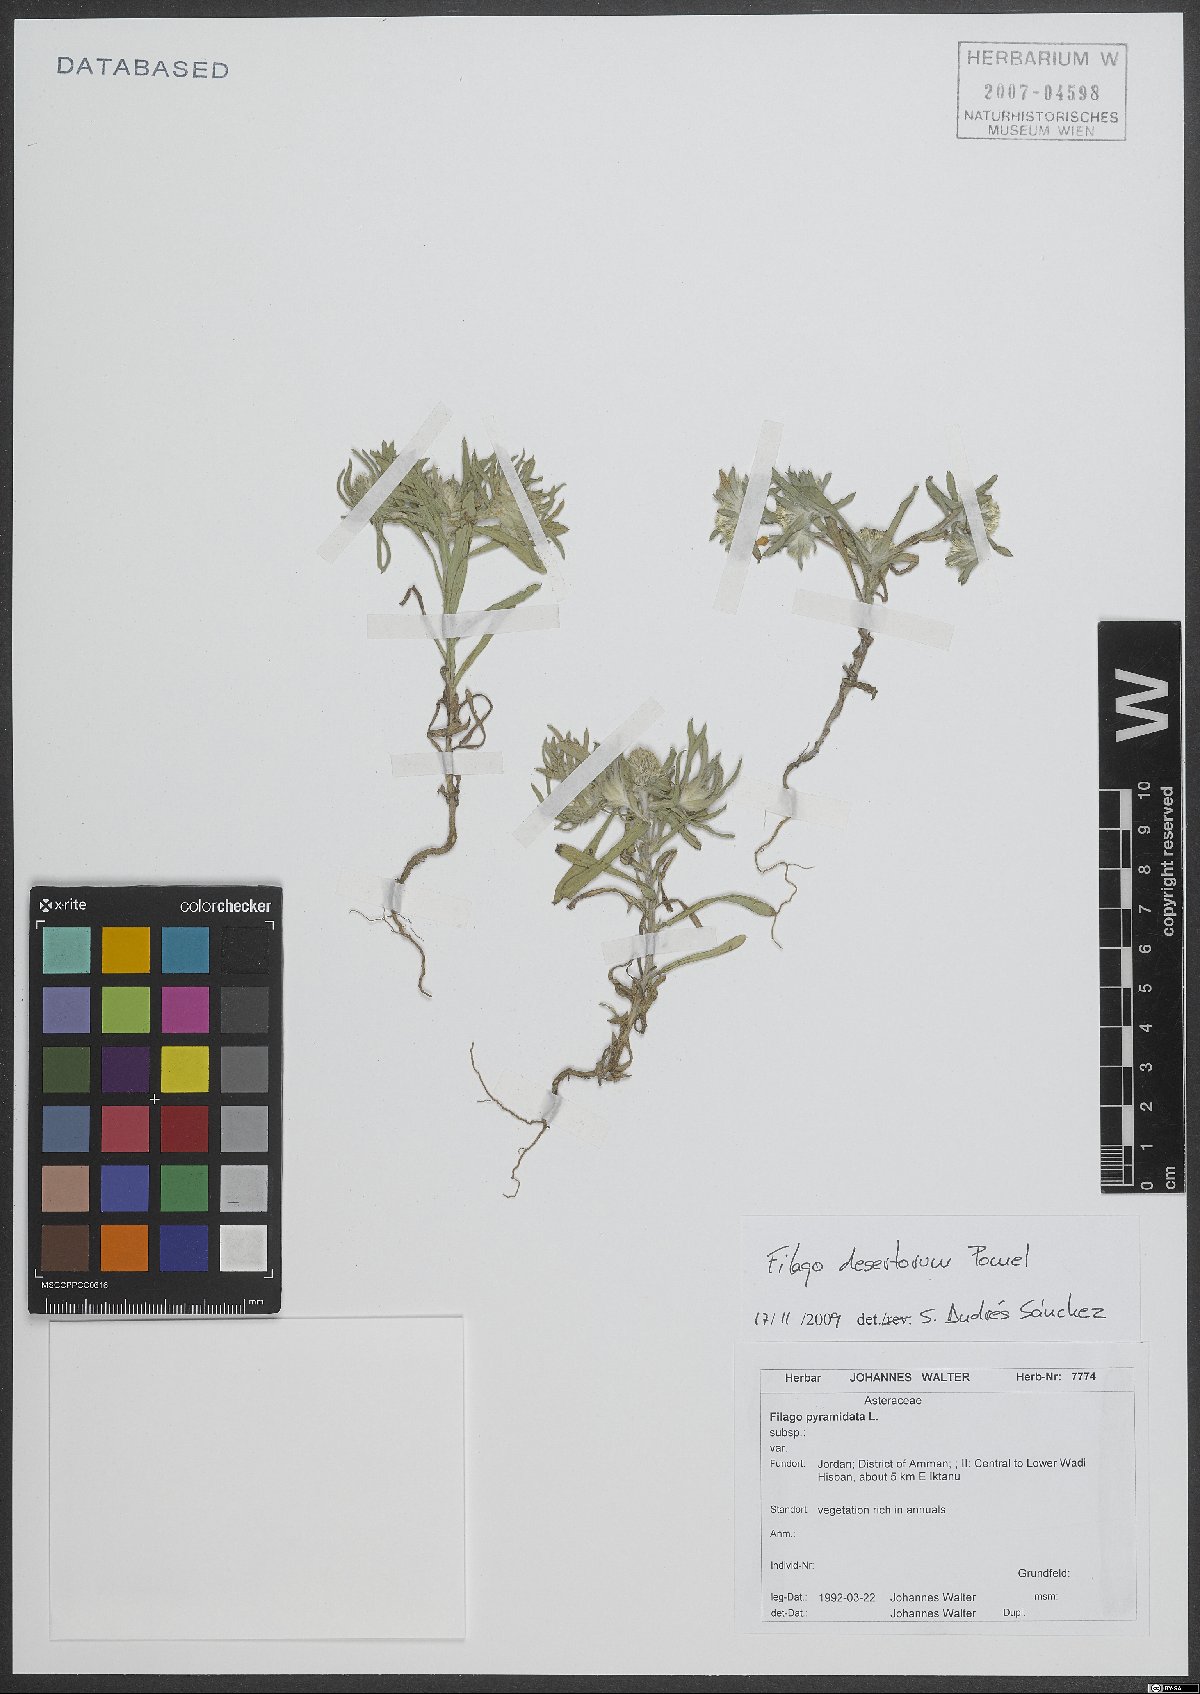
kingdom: Plantae
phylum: Tracheophyta
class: Magnoliopsida
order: Asterales
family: Asteraceae
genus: Filago
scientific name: Filago desertorum
